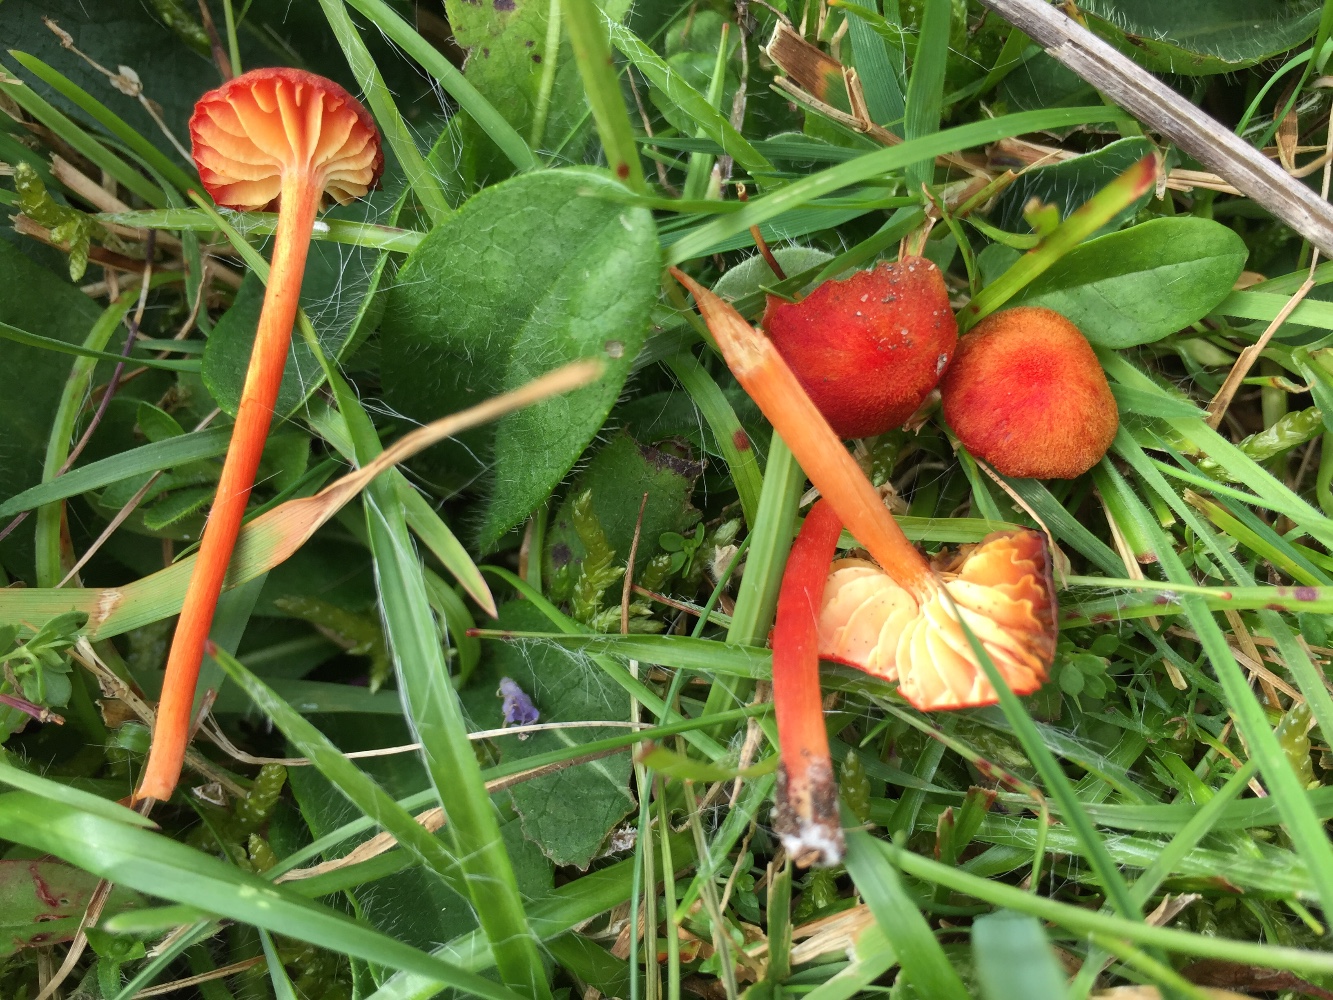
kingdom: Fungi
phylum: Basidiomycota
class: Agaricomycetes
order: Agaricales
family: Hygrophoraceae
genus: Hygrocybe
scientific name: Hygrocybe helobia
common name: hvidløgs-vokshat
